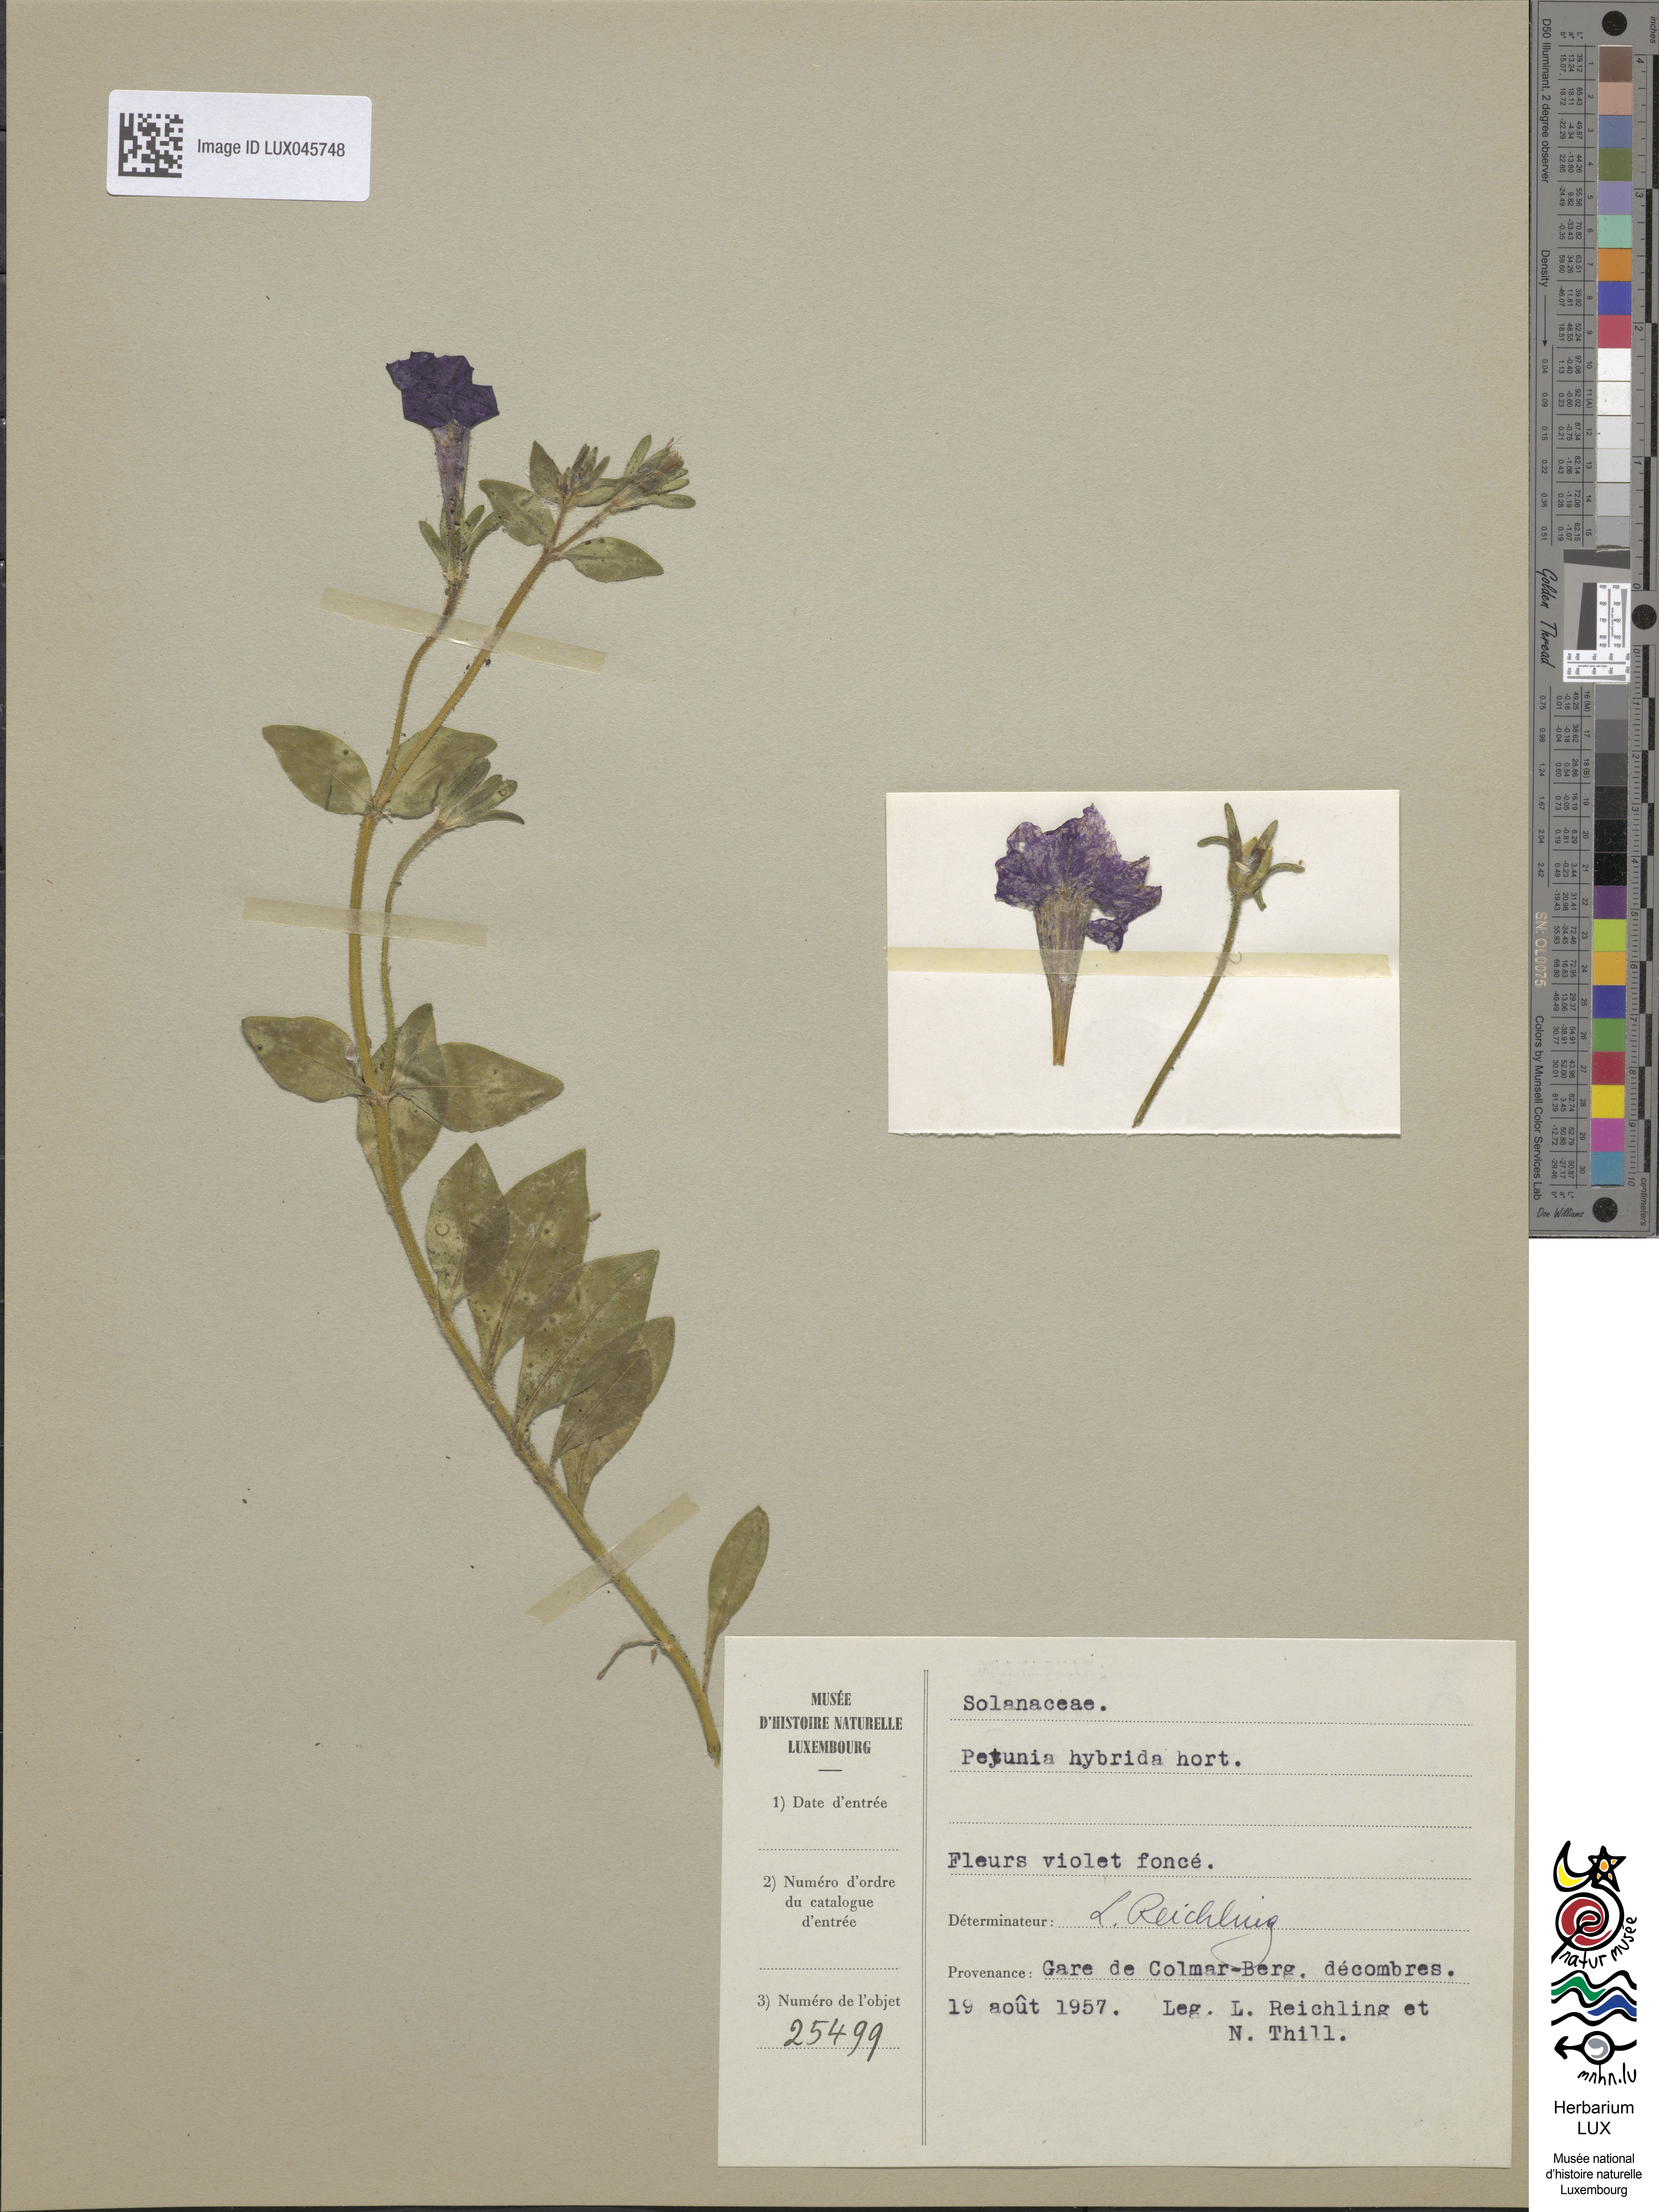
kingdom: Plantae
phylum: Tracheophyta
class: Magnoliopsida
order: Solanales
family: Solanaceae
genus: Petunia
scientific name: Petunia atkinsiana
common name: Petunia
